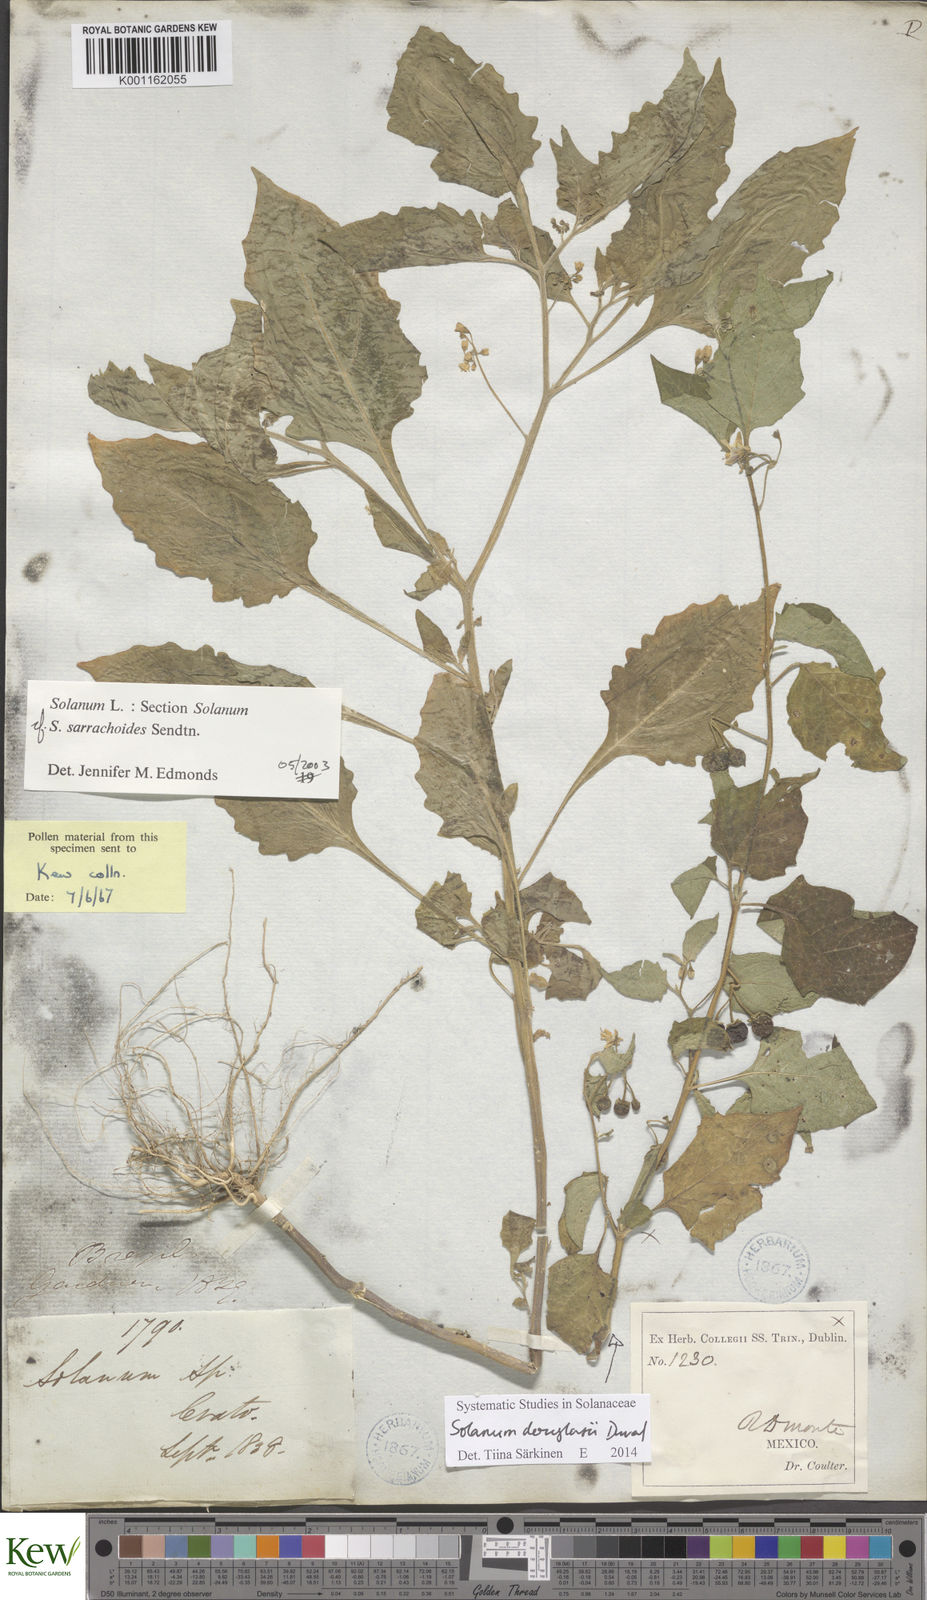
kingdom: Plantae
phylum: Tracheophyta
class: Magnoliopsida
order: Solanales
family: Solanaceae
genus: Solanum
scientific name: Solanum sarrachoides
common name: Leafy-fruited nightshade
